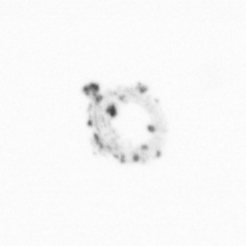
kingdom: Chromista
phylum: Ochrophyta
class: Bacillariophyceae
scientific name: Bacillariophyceae
